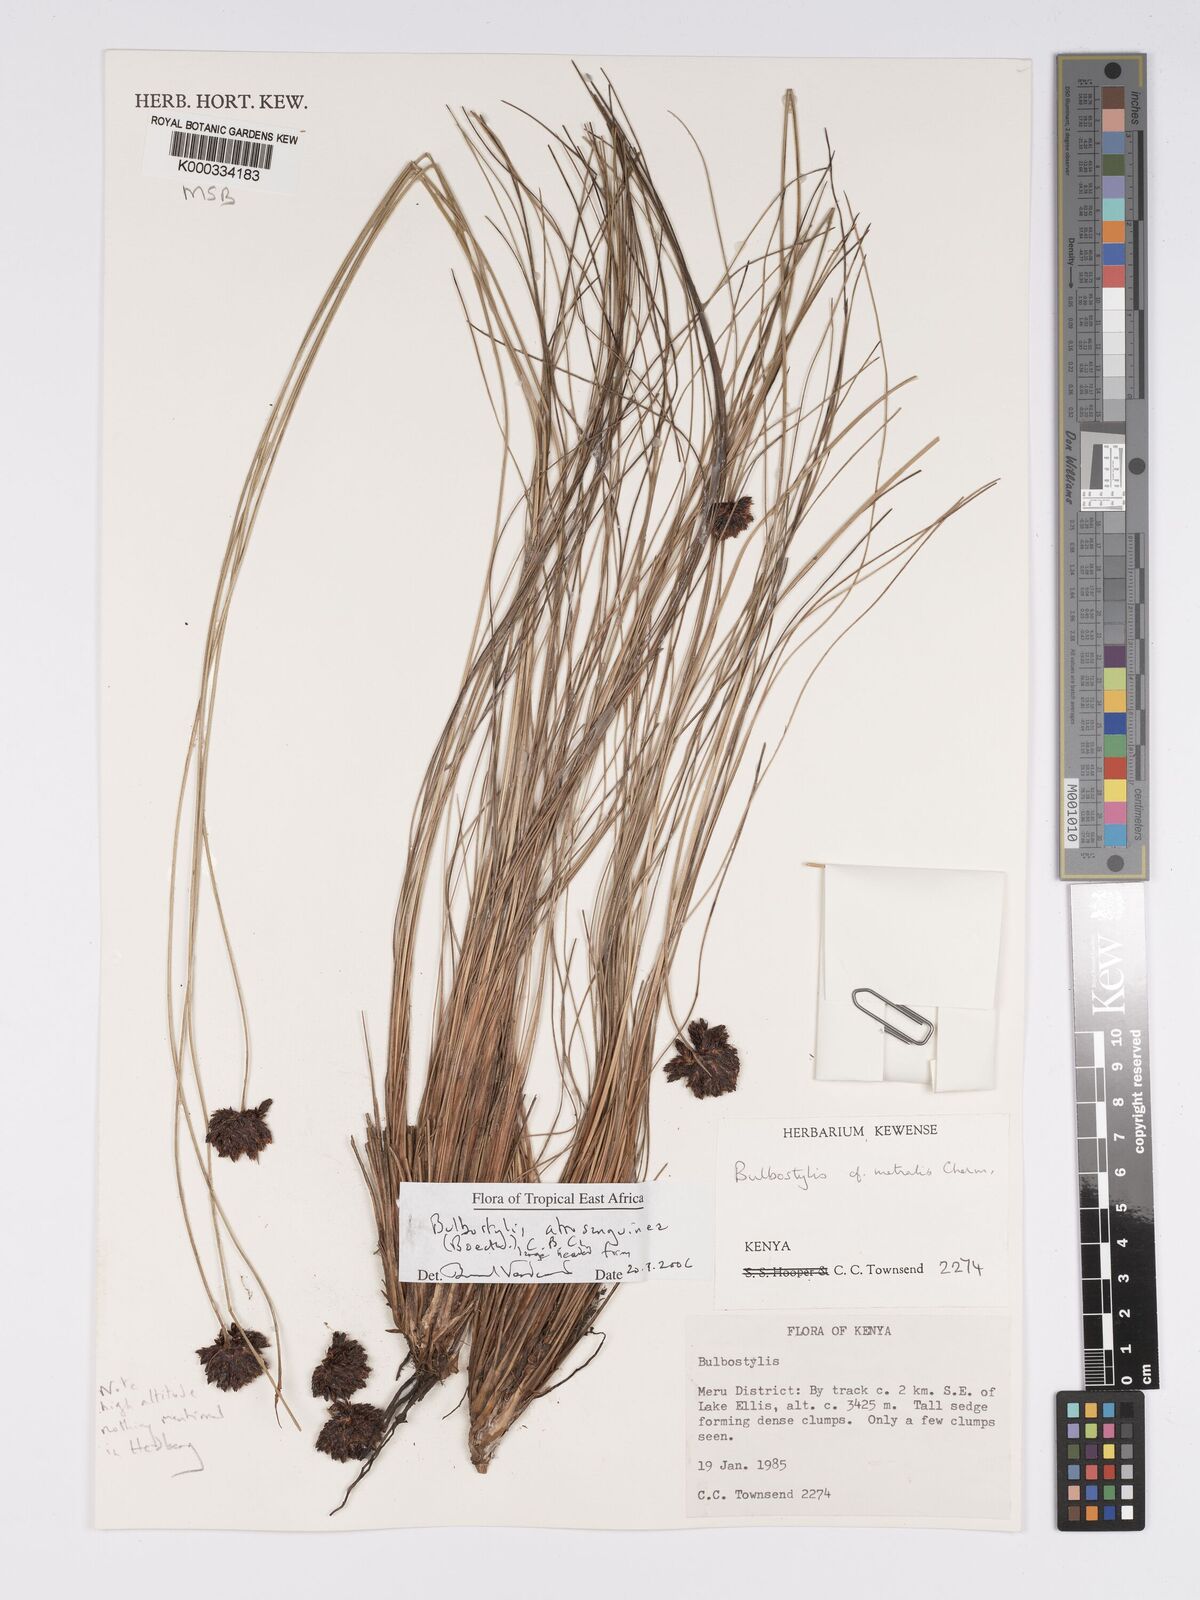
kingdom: Plantae
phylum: Tracheophyta
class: Liliopsida
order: Poales
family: Cyperaceae
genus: Bulbostylis
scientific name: Bulbostylis atrosanguinea
